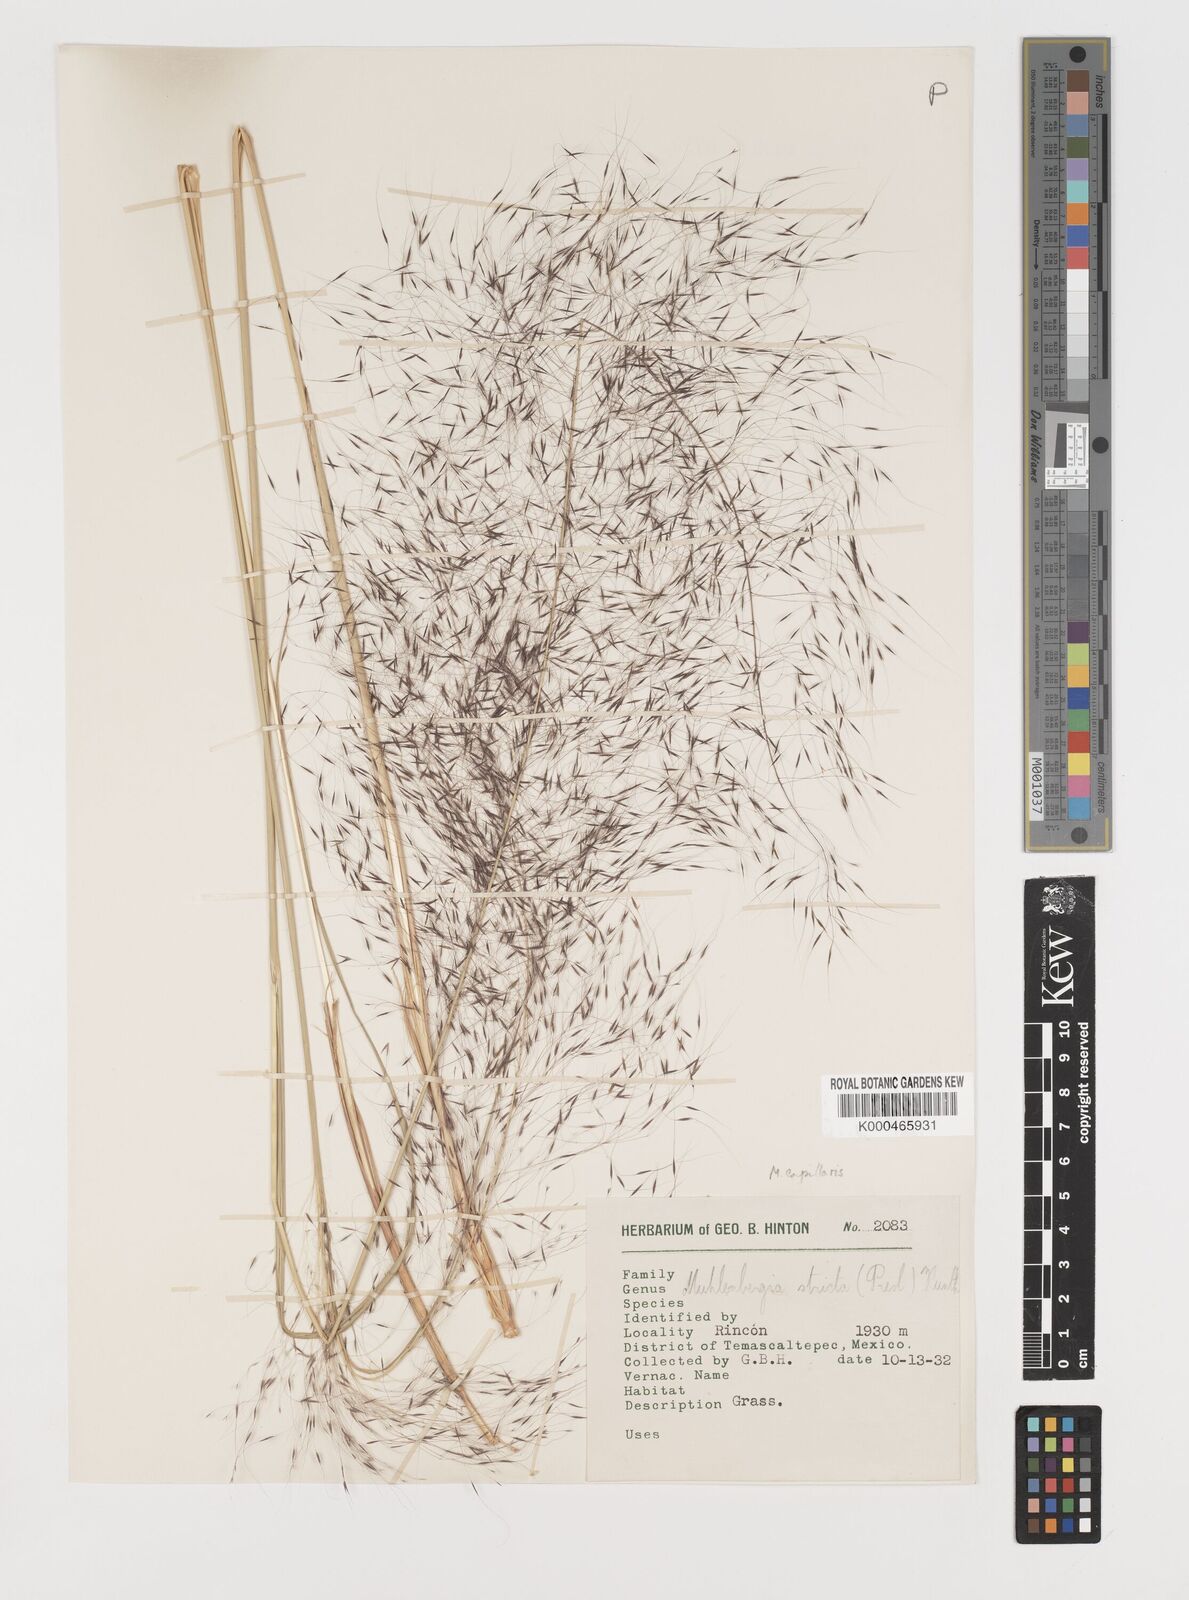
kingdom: Plantae
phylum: Tracheophyta
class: Liliopsida
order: Poales
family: Poaceae
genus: Muhlenbergia
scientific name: Muhlenbergia rigida
